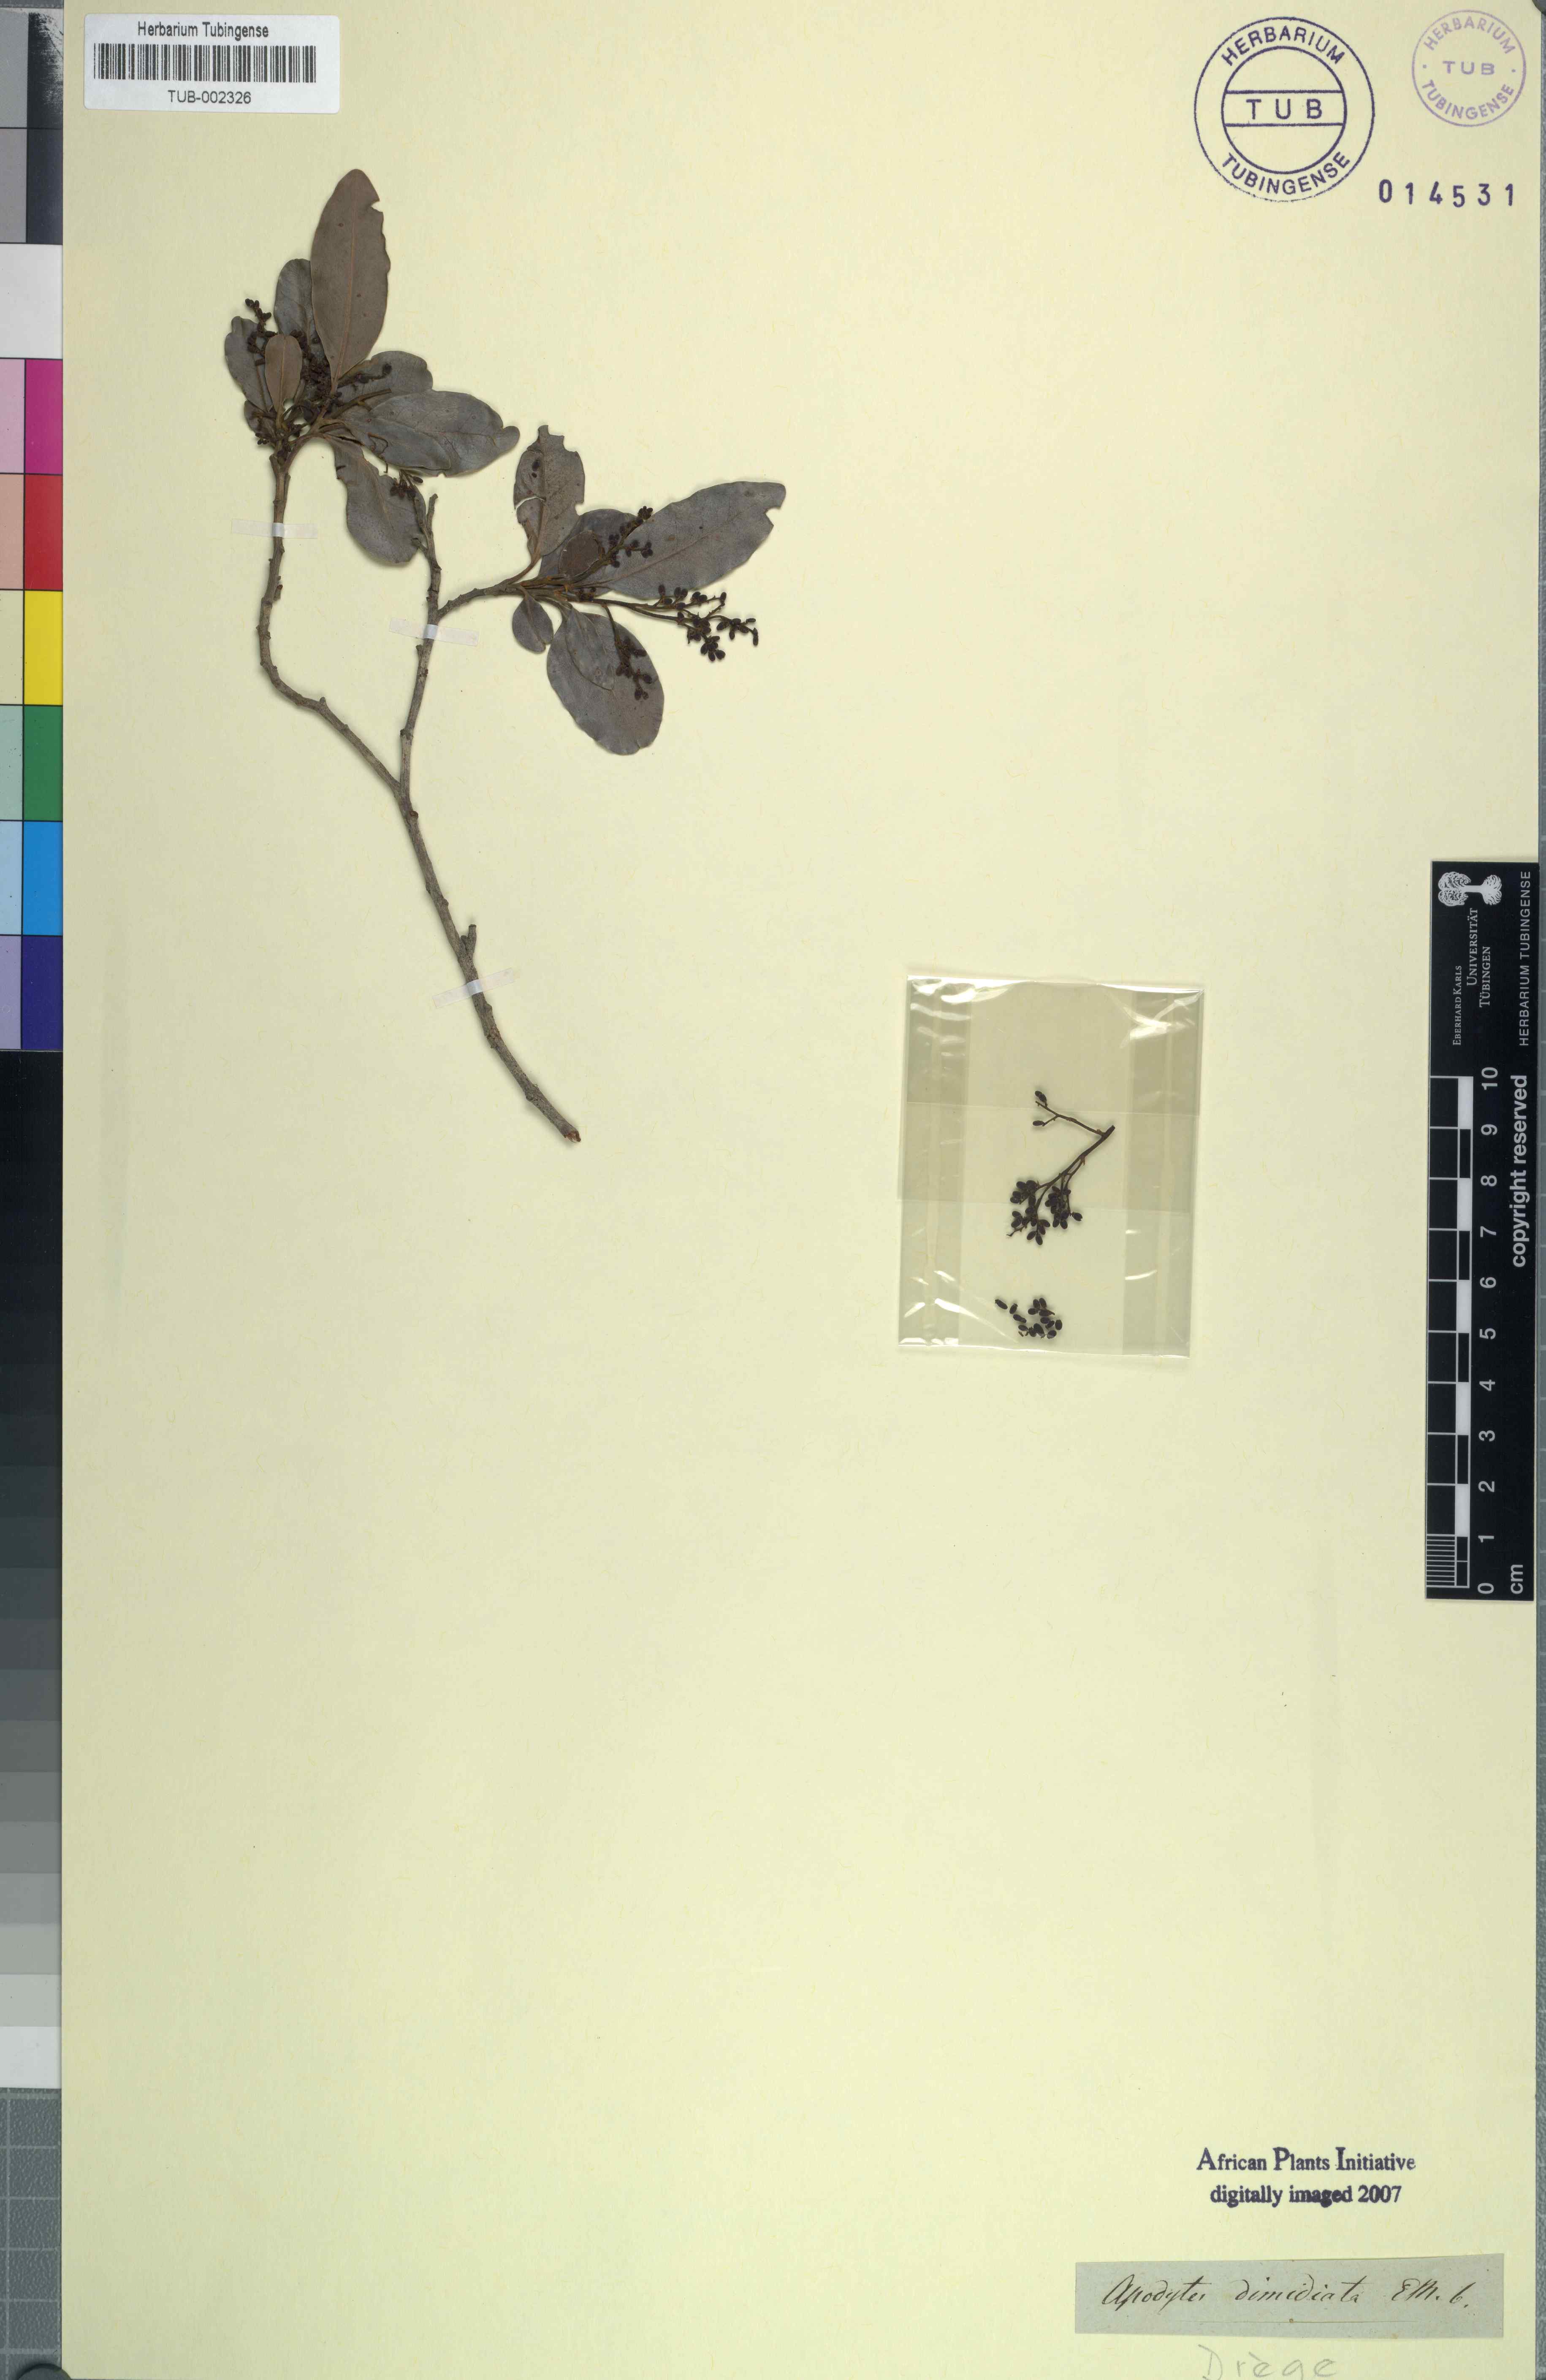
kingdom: Plantae
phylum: Tracheophyta
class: Magnoliopsida
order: Metteniusales
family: Metteniusaceae
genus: Apodytes
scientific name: Apodytes dimidiata
